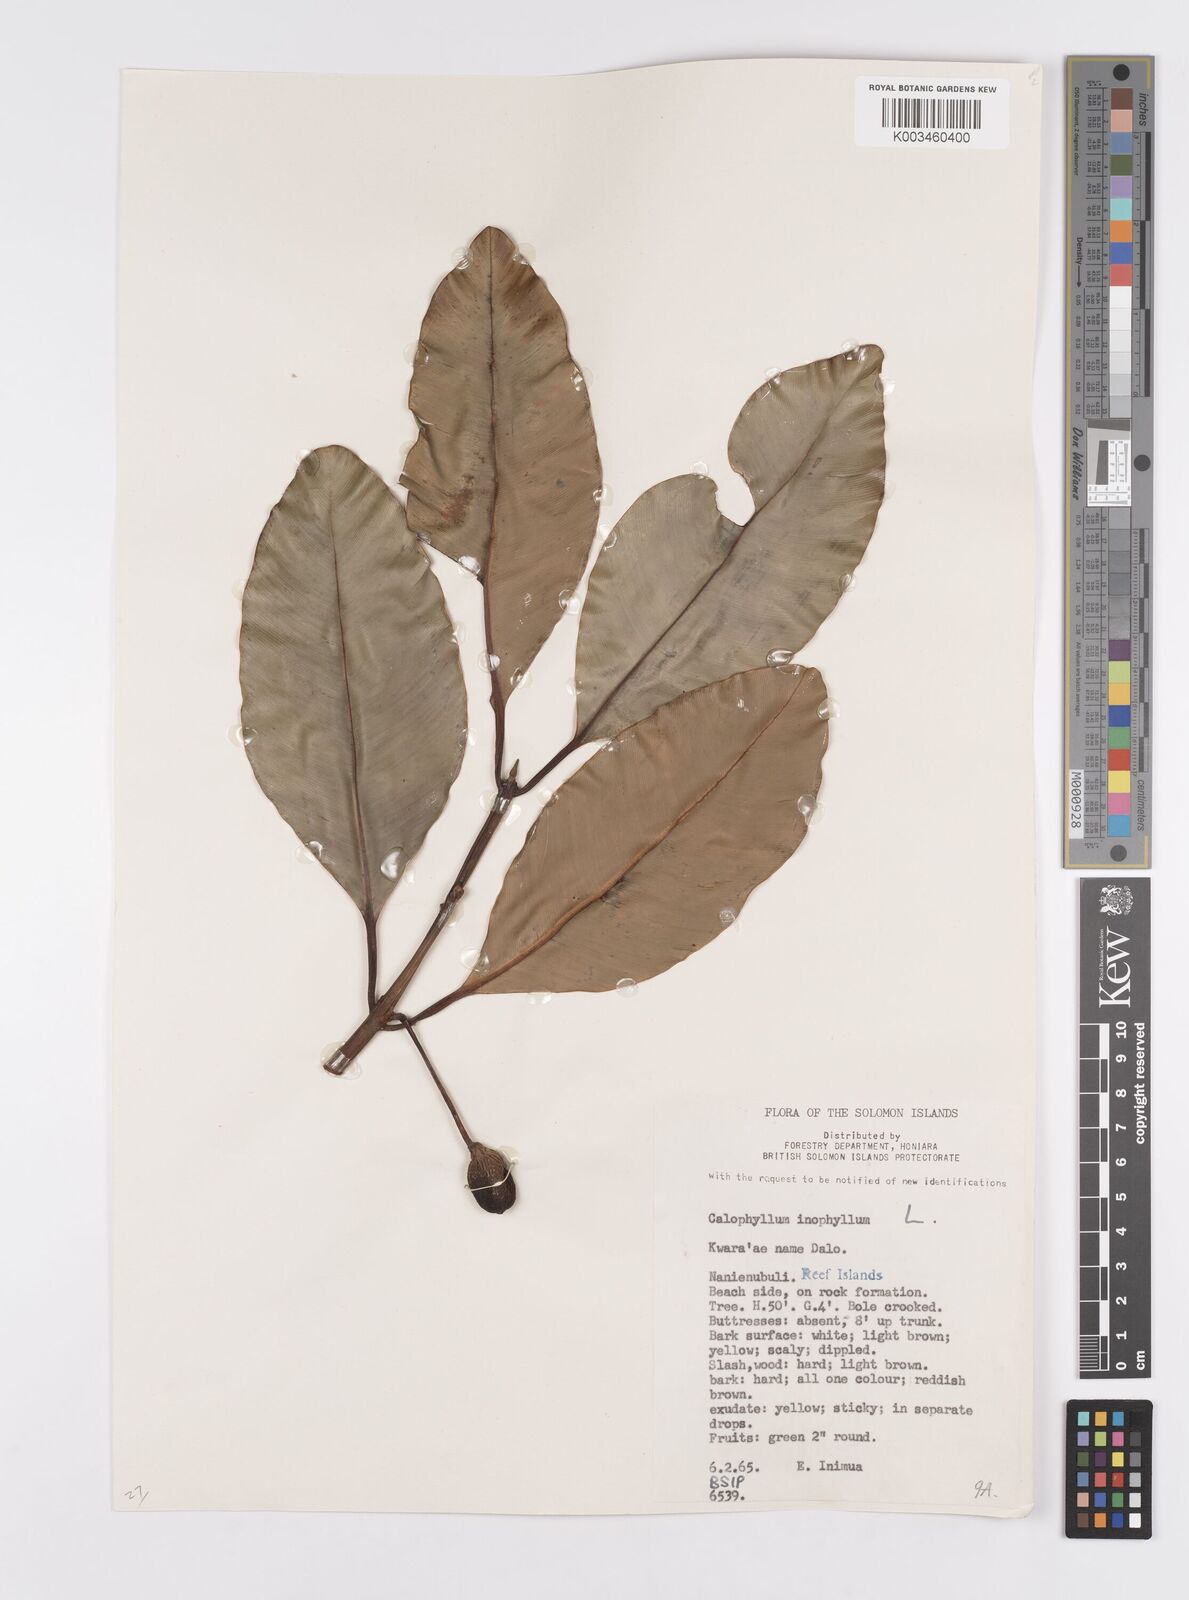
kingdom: Plantae
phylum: Tracheophyta
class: Magnoliopsida
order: Malpighiales
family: Calophyllaceae
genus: Calophyllum
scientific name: Calophyllum inophyllum
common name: Alexandrian laurel
